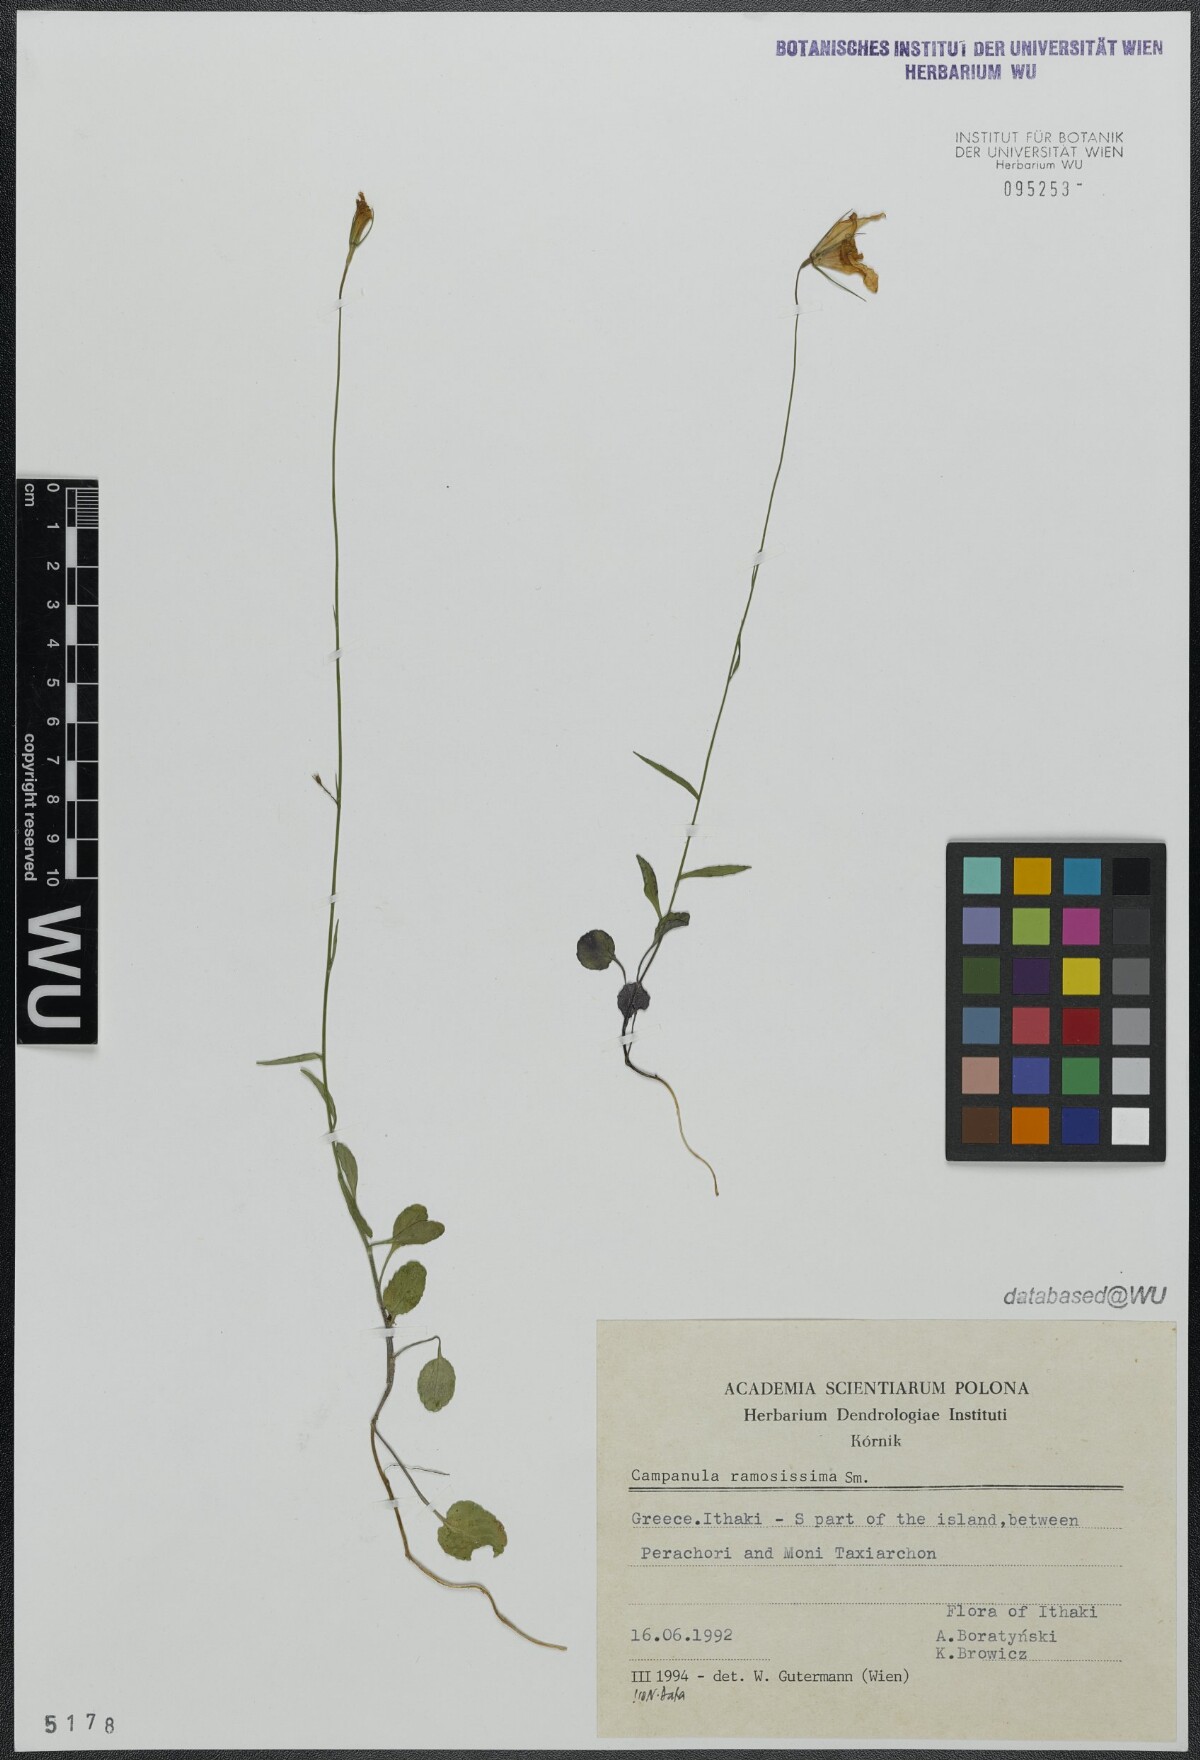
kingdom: Plantae
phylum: Tracheophyta
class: Magnoliopsida
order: Asterales
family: Campanulaceae
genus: Campanula
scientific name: Campanula ramosissima
